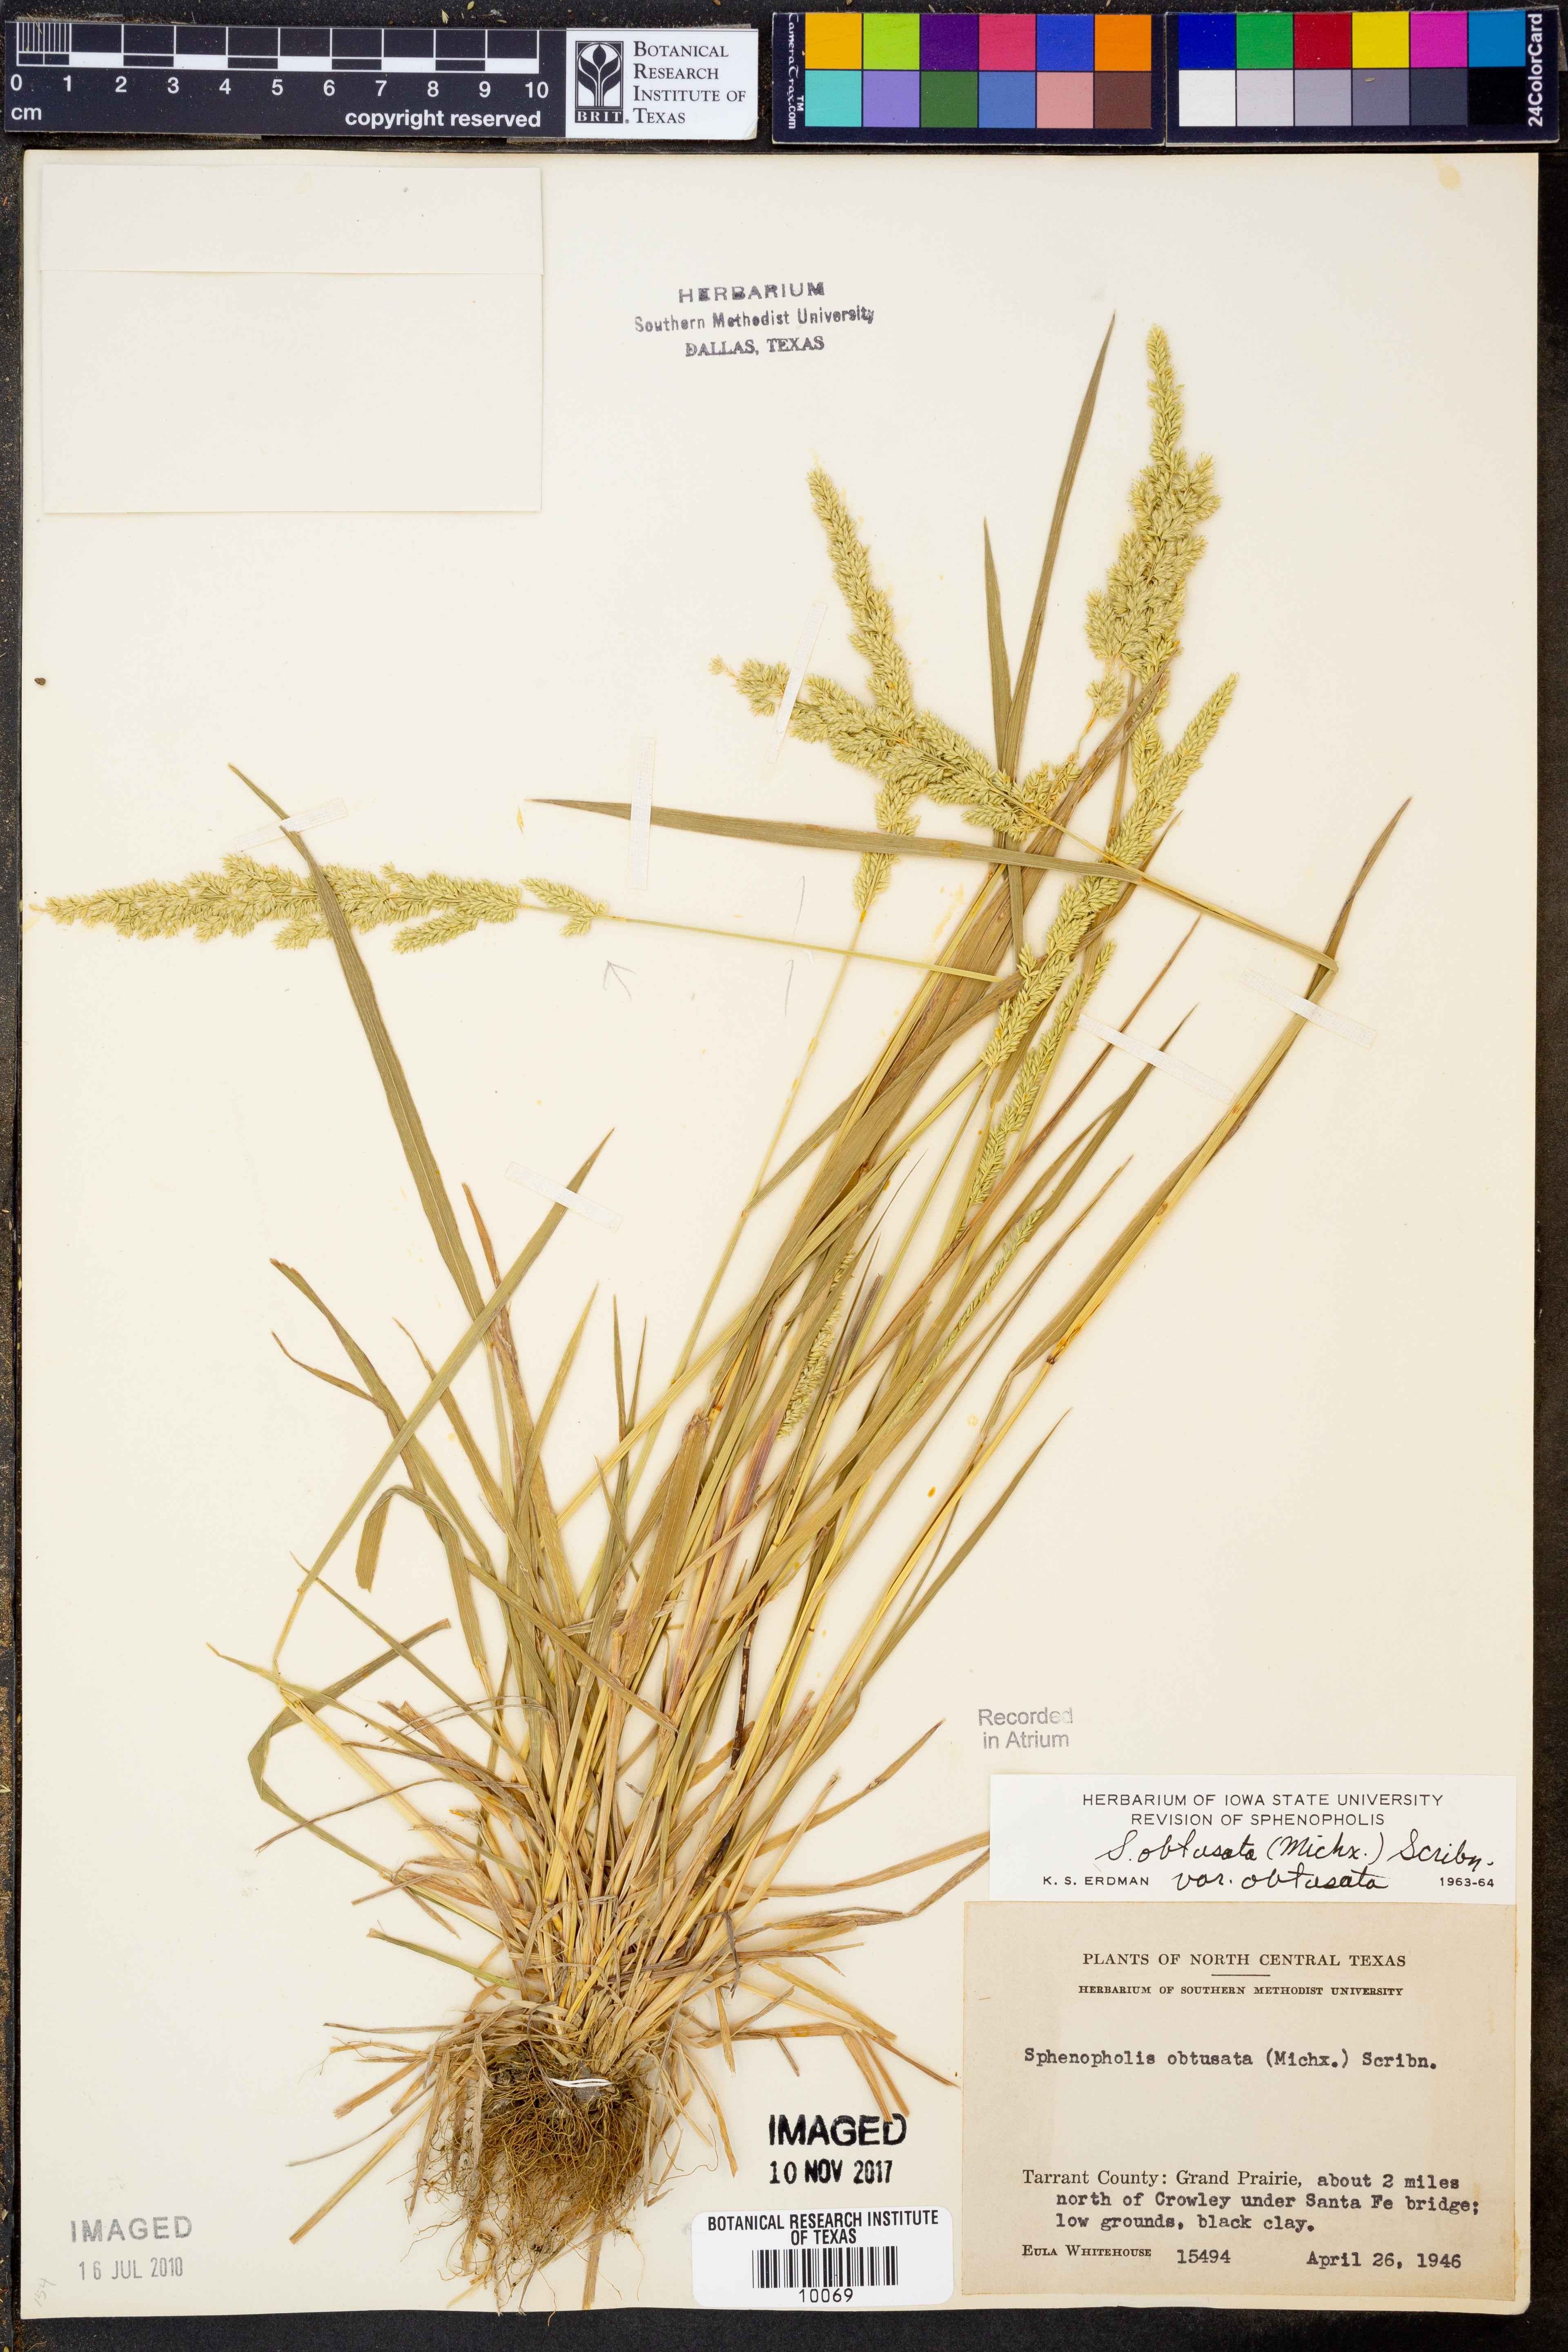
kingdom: Plantae
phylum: Tracheophyta
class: Liliopsida
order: Poales
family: Poaceae
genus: Sphenopholis
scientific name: Sphenopholis obtusata
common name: Prairie grass
